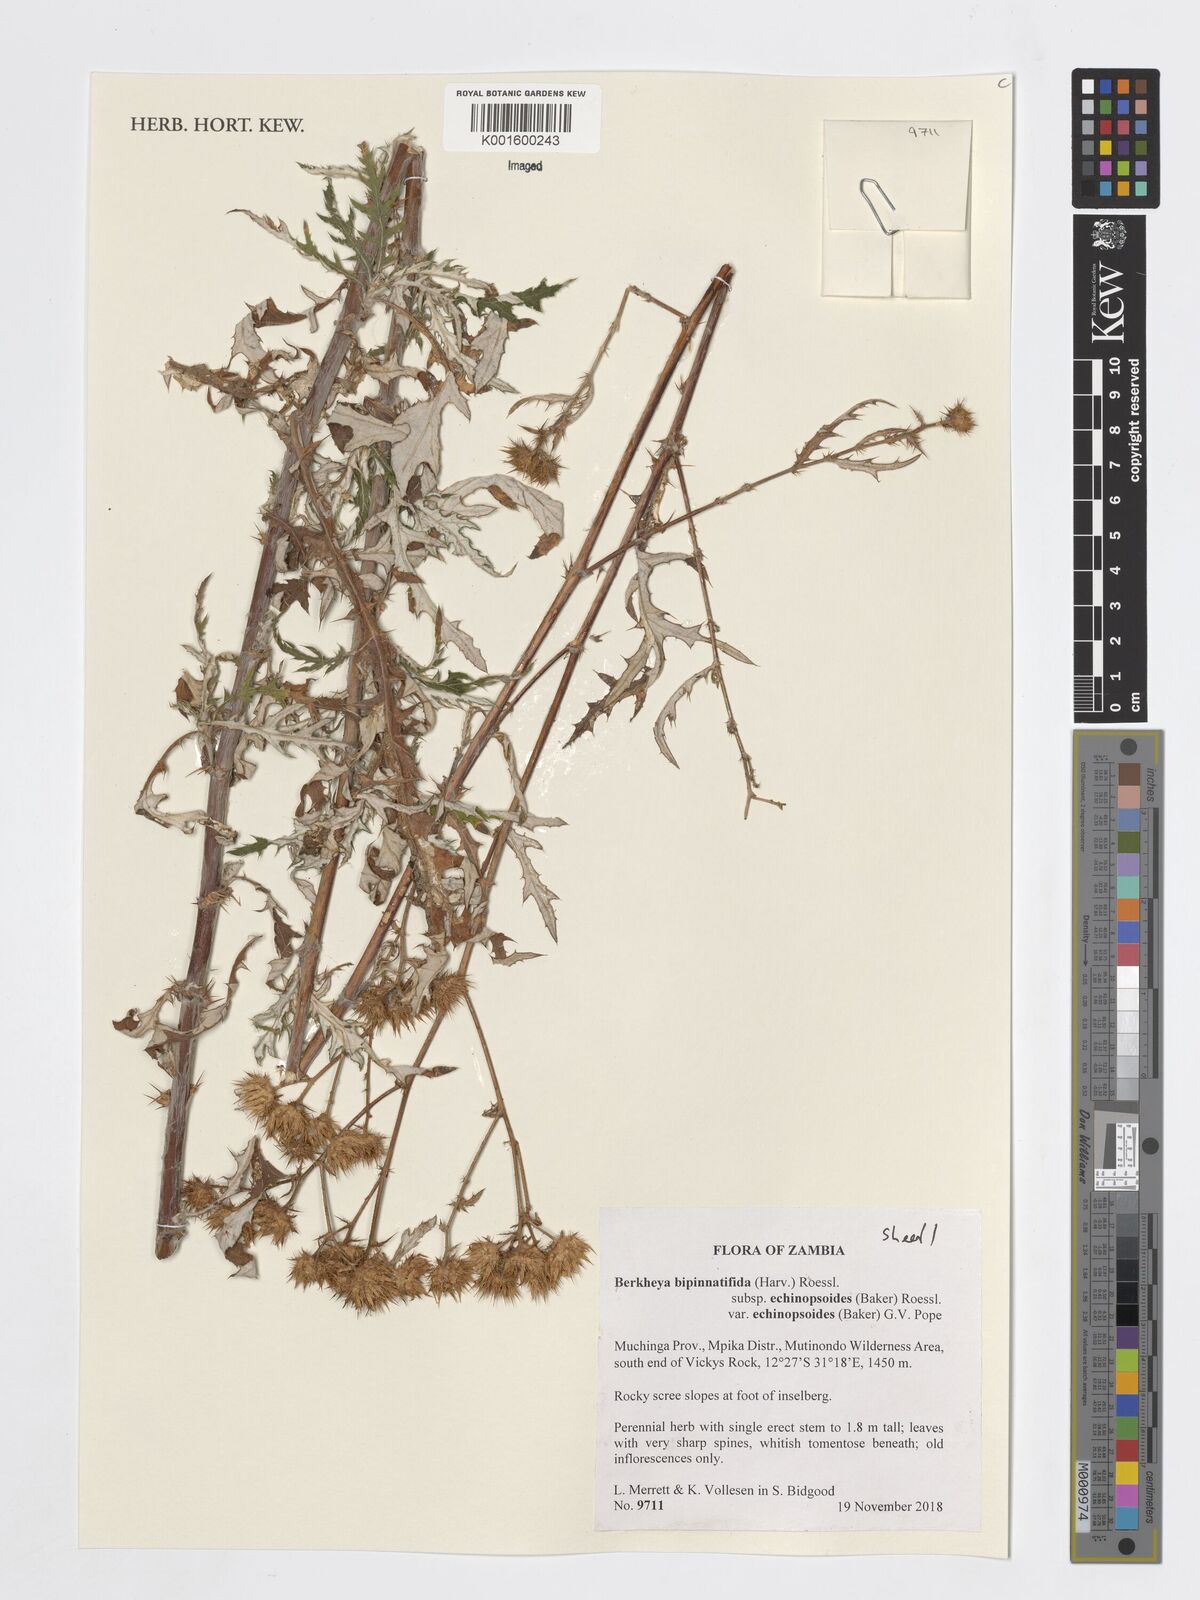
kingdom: Plantae
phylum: Tracheophyta
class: Magnoliopsida
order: Asterales
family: Asteraceae
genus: Berkheya
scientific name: Berkheya bipinnatifida
